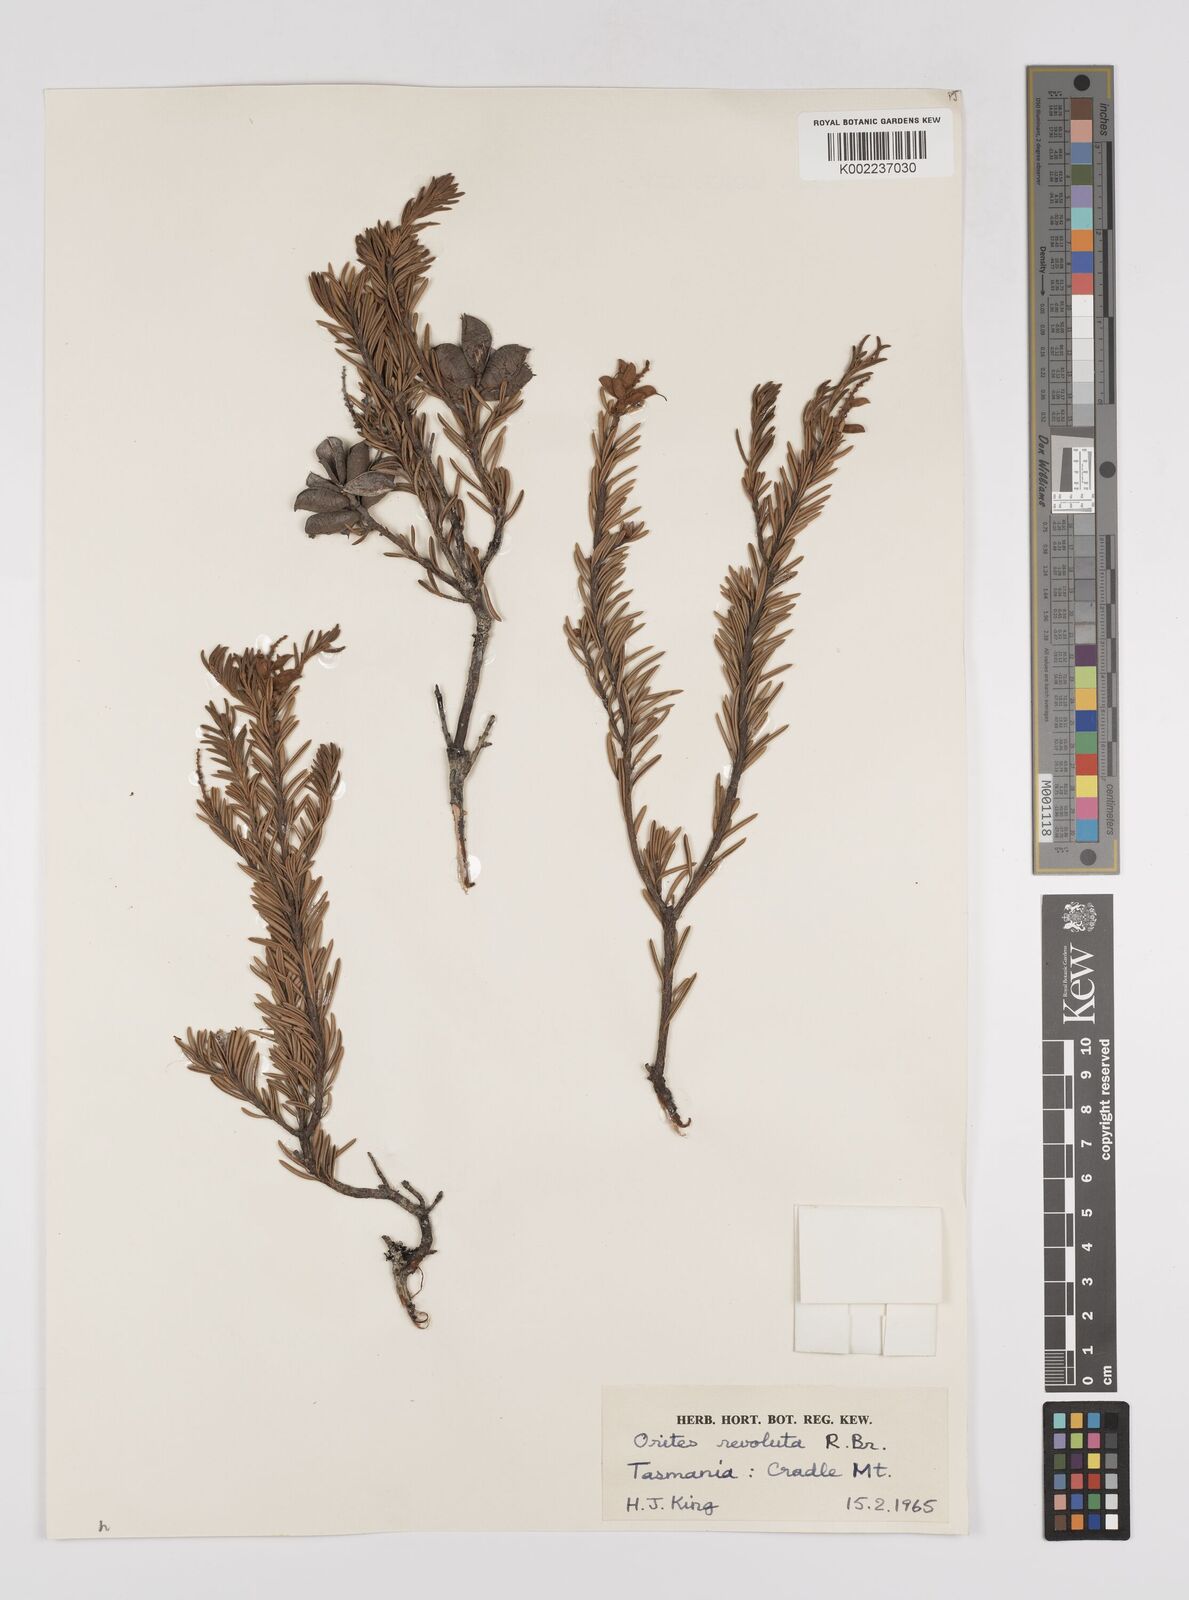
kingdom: Plantae
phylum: Tracheophyta
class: Magnoliopsida
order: Proteales
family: Proteaceae
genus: Orites
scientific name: Orites revolutus
